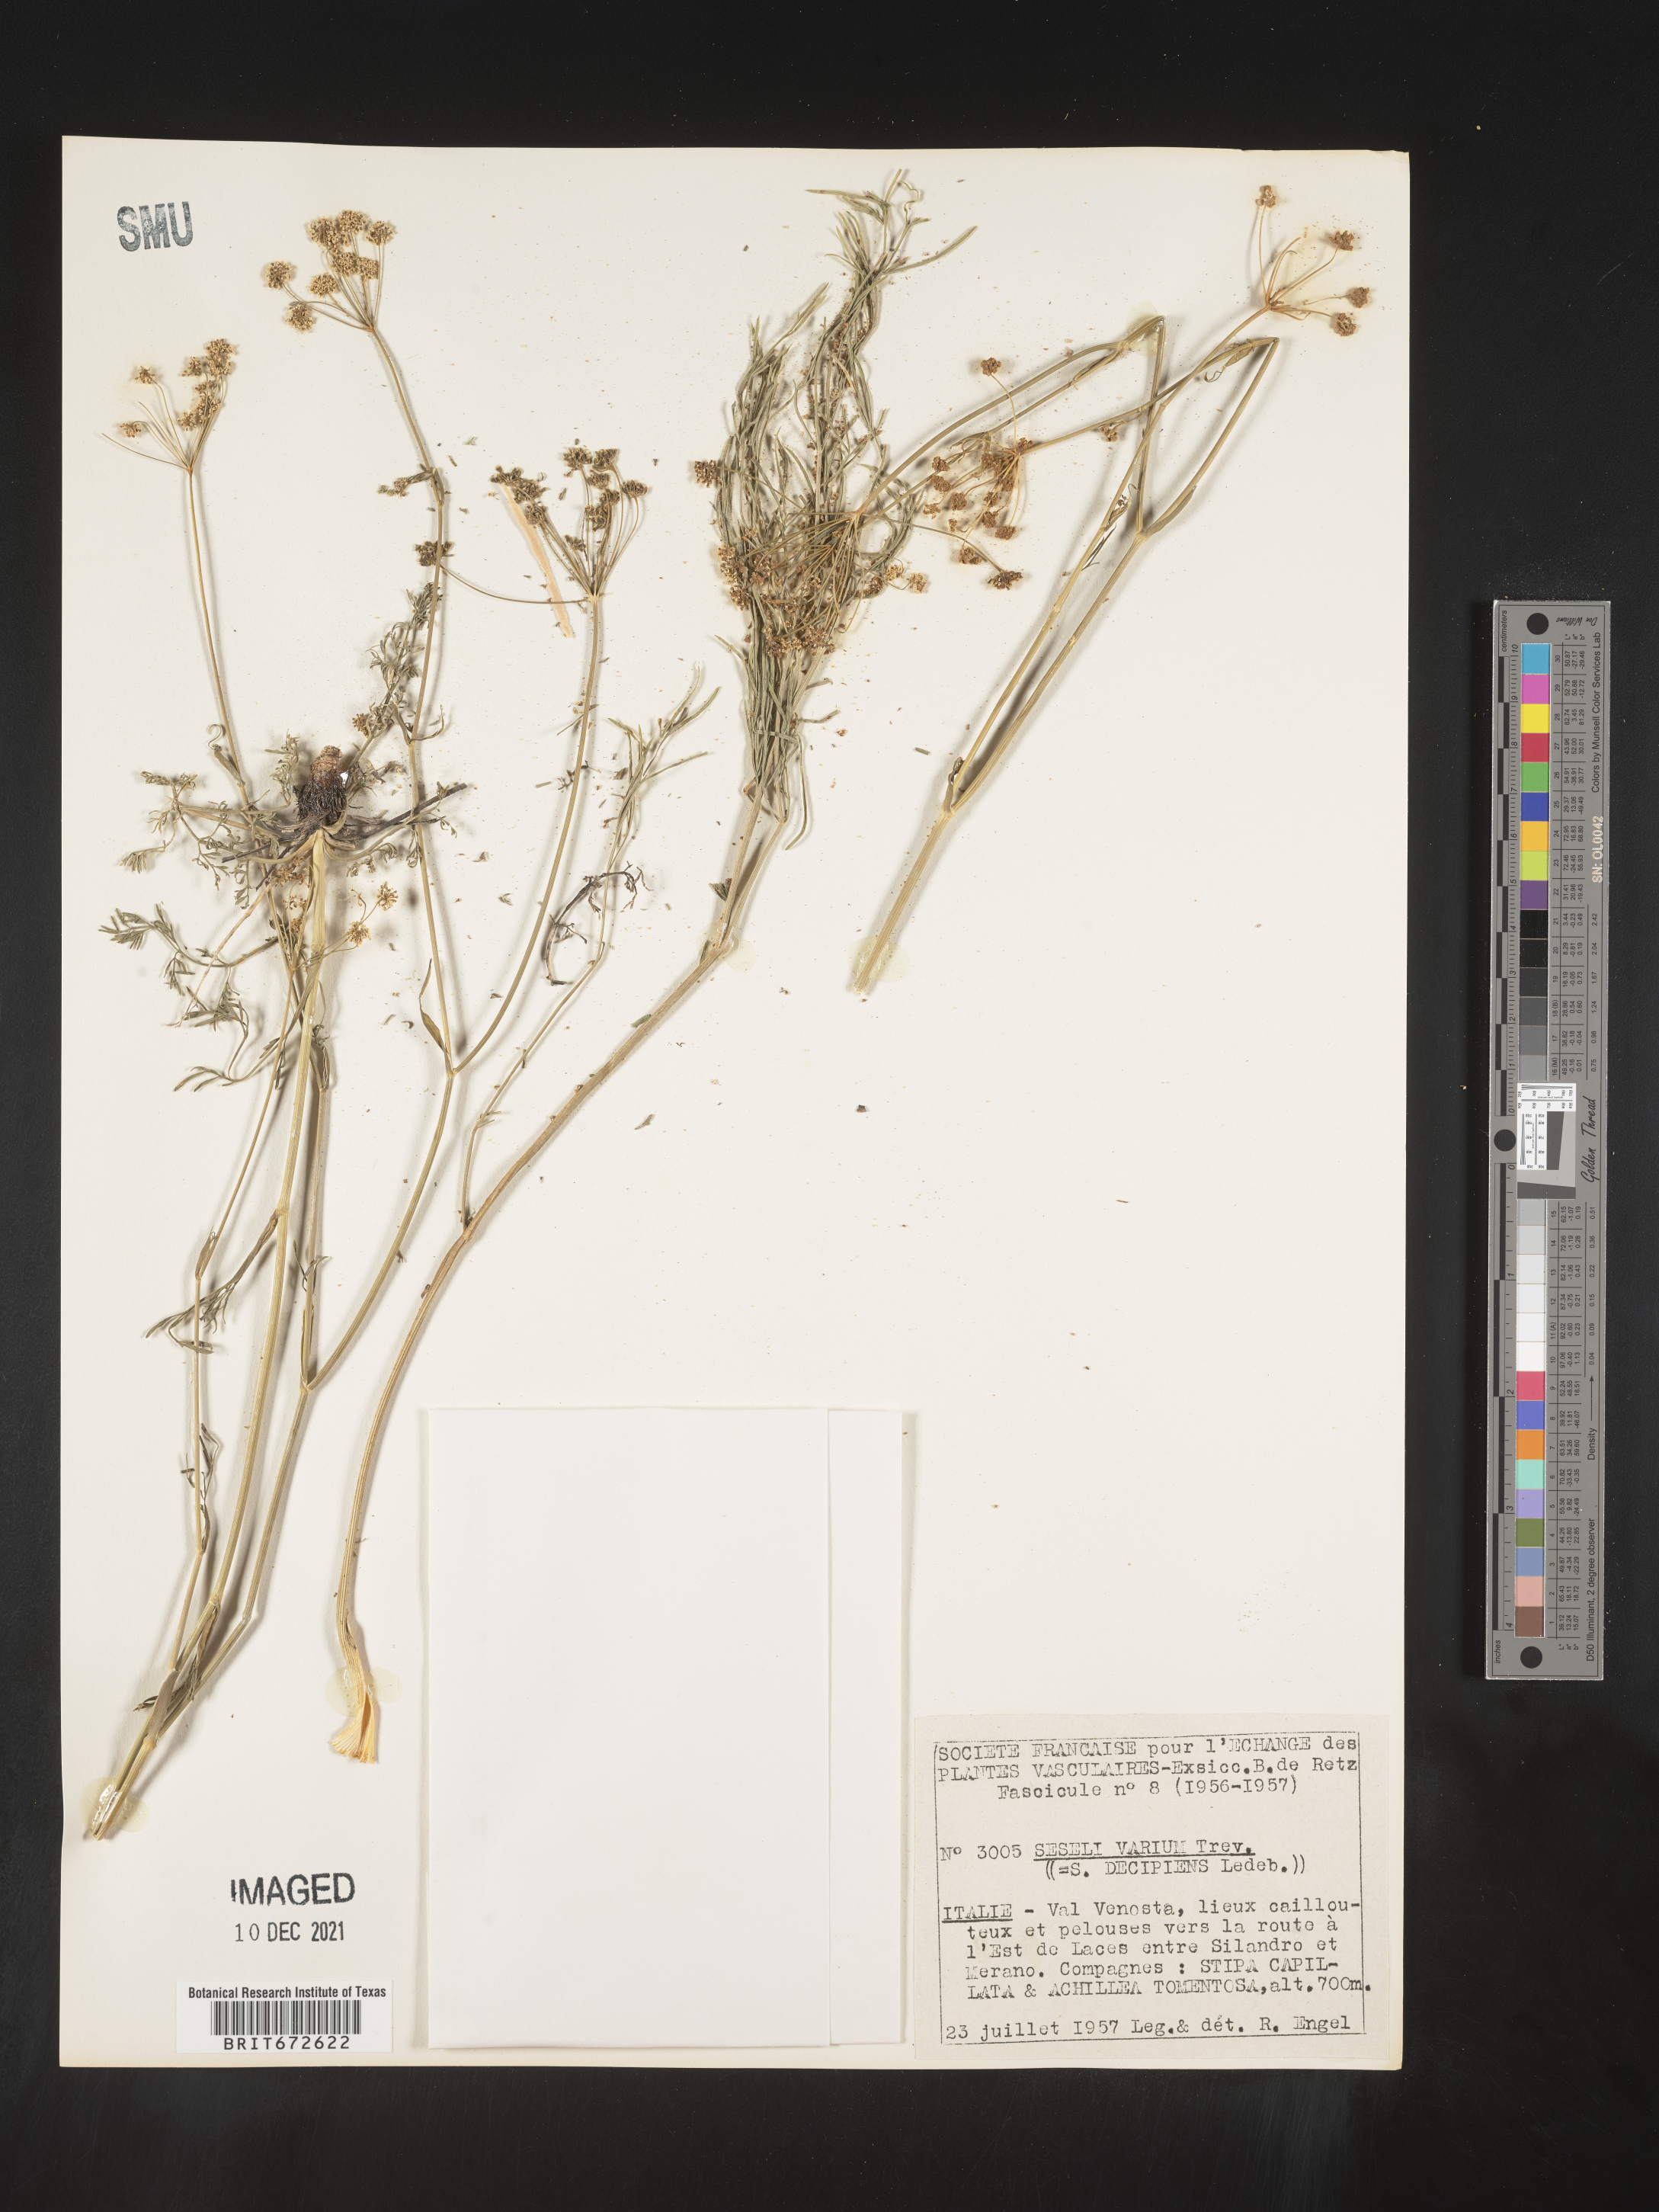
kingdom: Plantae
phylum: Tracheophyta
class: Magnoliopsida
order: Apiales
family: Apiaceae
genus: Seseli
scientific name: Seseli
